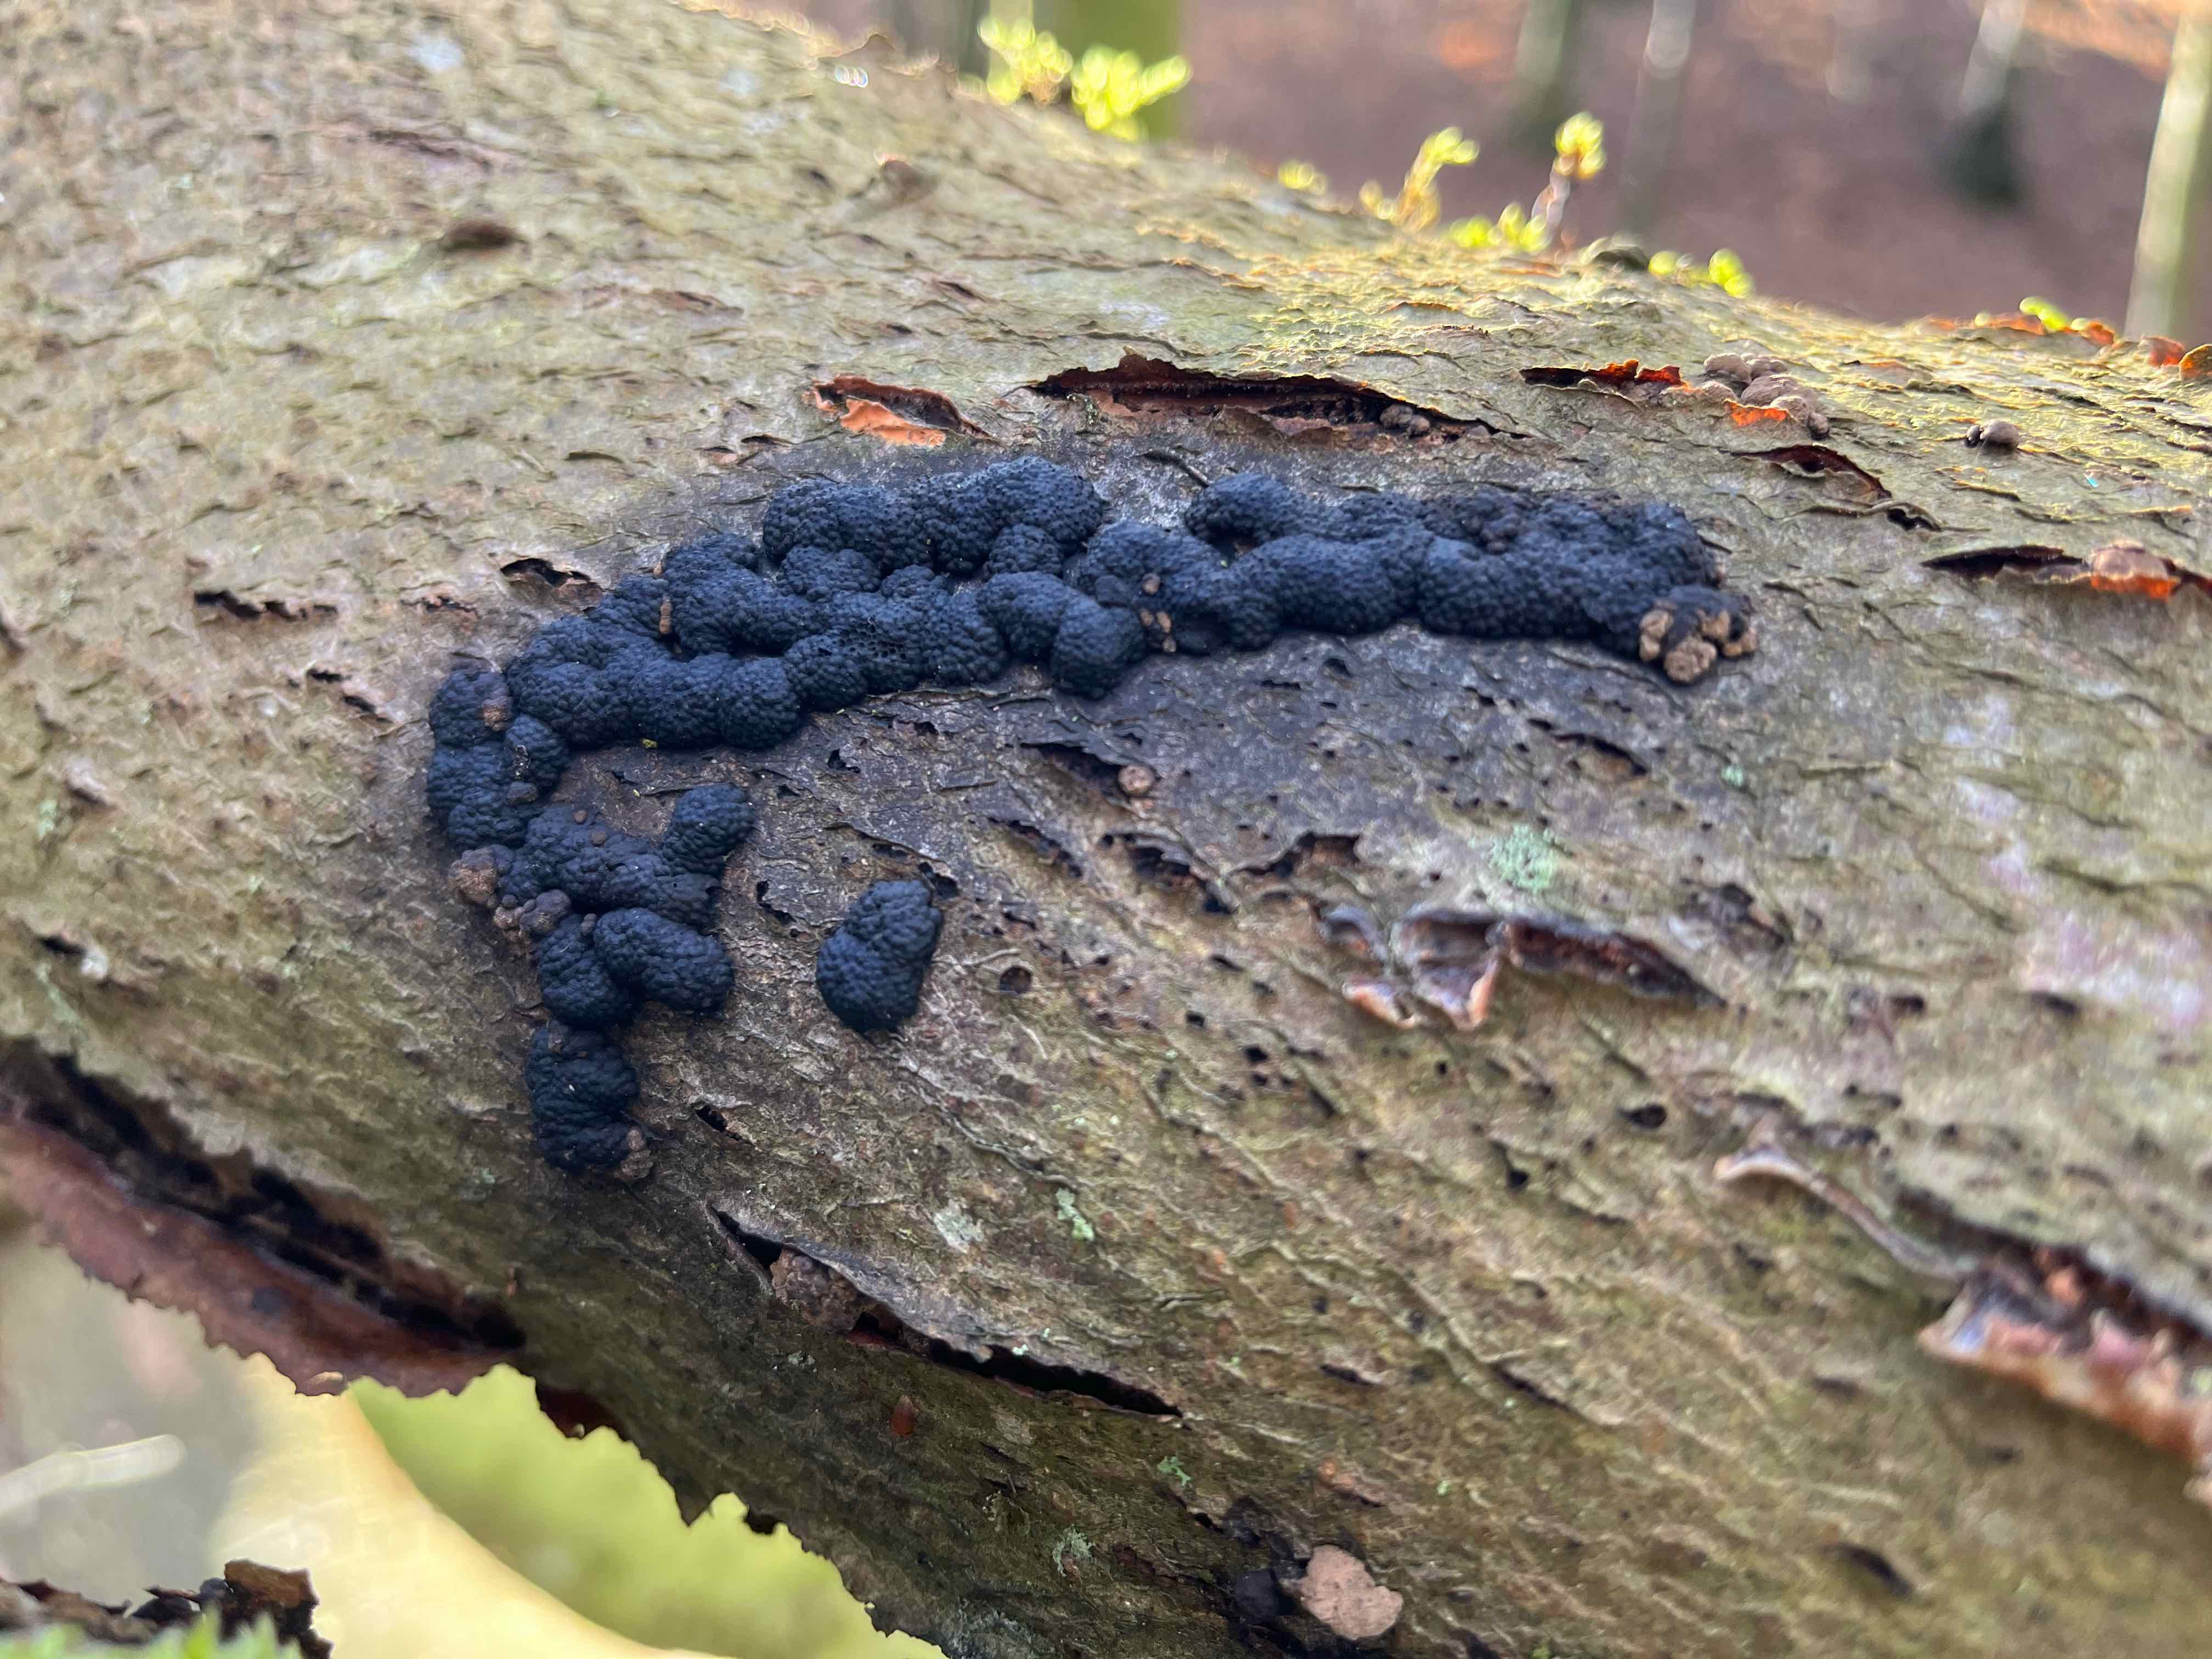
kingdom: Fungi
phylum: Ascomycota
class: Sordariomycetes
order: Xylariales
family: Hypoxylaceae
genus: Jackrogersella
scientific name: Jackrogersella cohaerens
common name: sammenflydende kulbær
